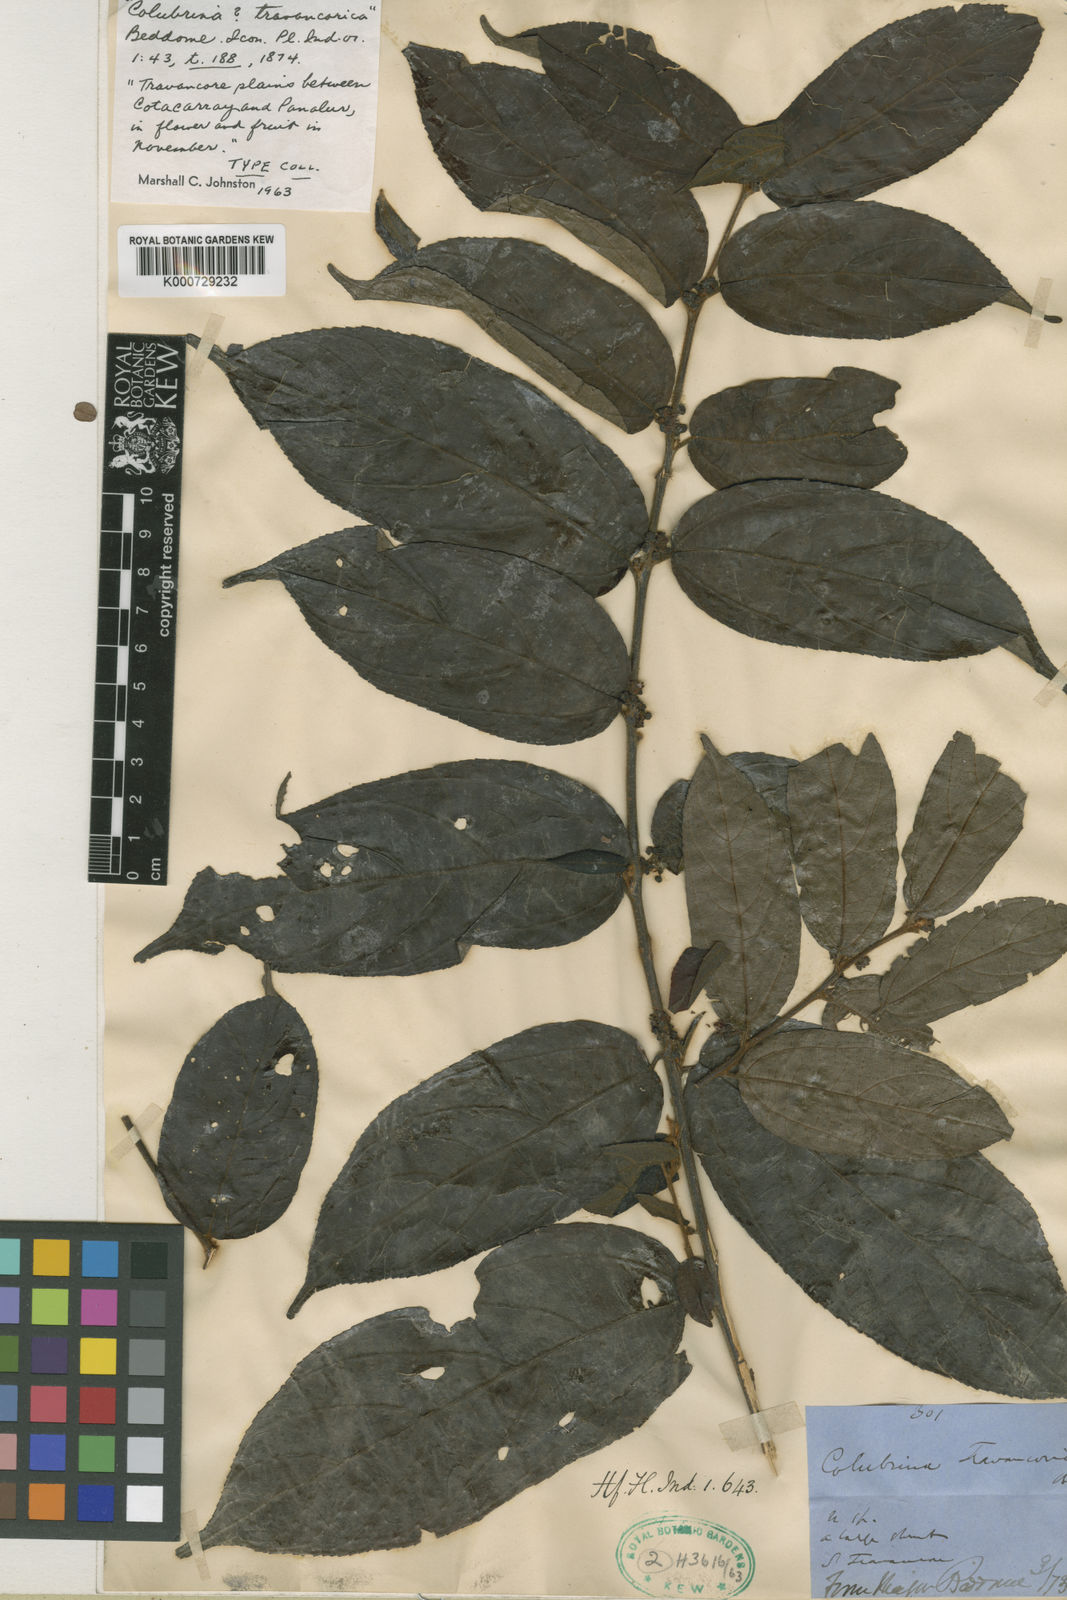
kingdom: Plantae
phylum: Tracheophyta
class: Magnoliopsida
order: Rosales
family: Rhamnaceae
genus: Colubrina
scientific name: Colubrina travancorica
